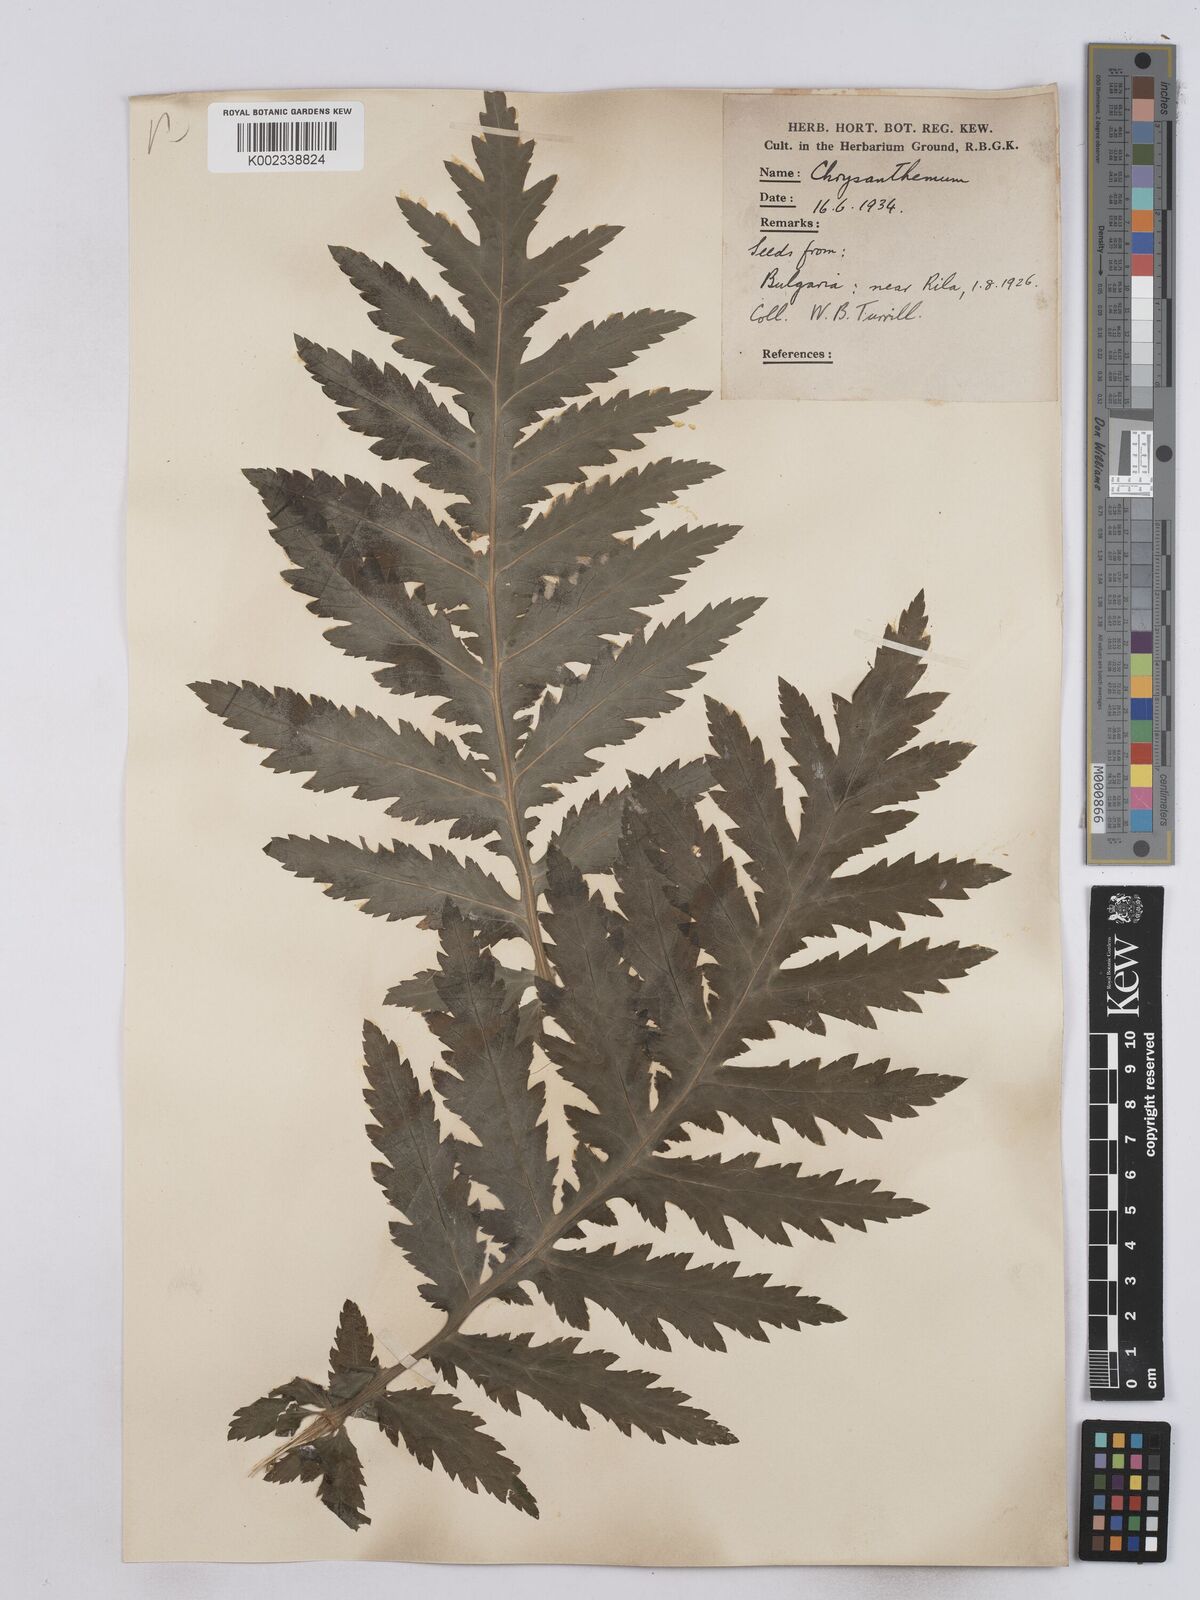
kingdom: Plantae
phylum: Tracheophyta
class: Magnoliopsida
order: Asterales
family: Asteraceae
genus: Tanacetum
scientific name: Tanacetum macrophyllum
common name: Rayed tansy
